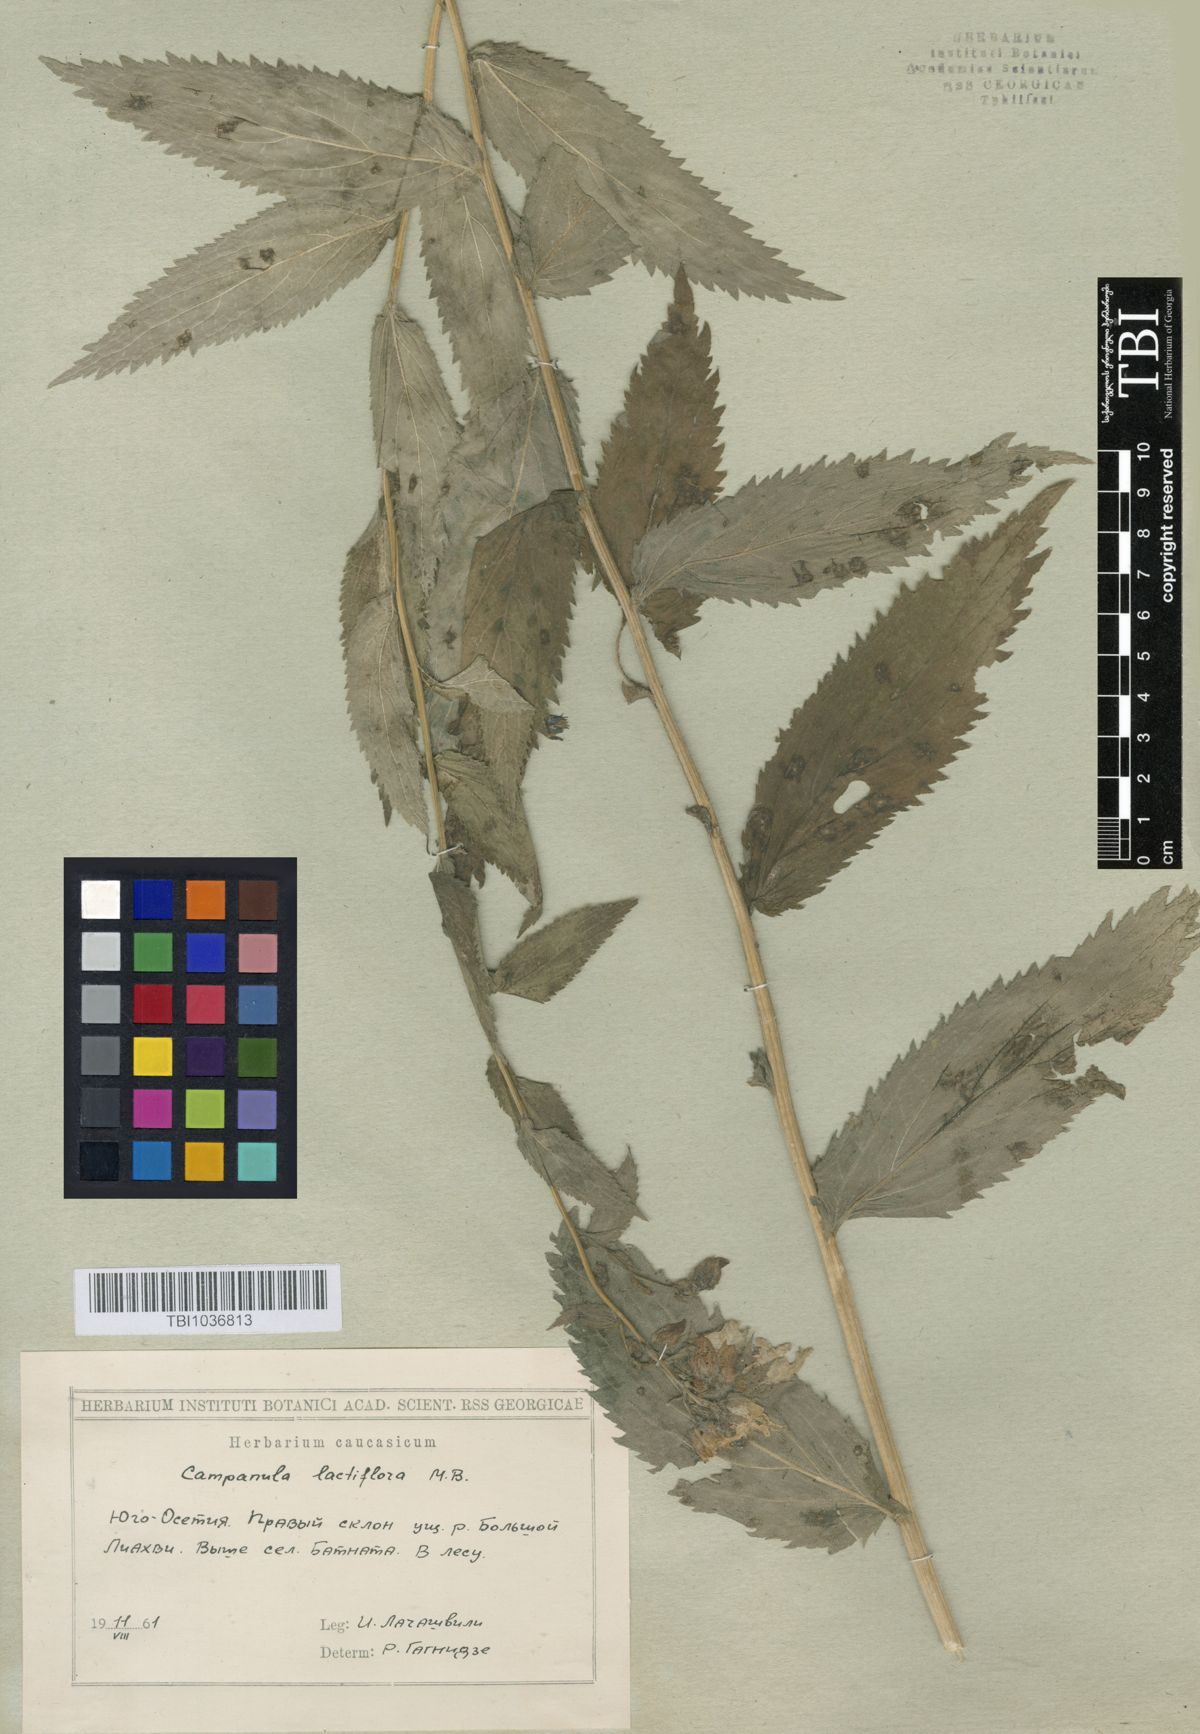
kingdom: Plantae
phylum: Tracheophyta
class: Magnoliopsida
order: Asterales
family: Campanulaceae
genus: Campanula
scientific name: Campanula lactiflora
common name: Milky bellflower
